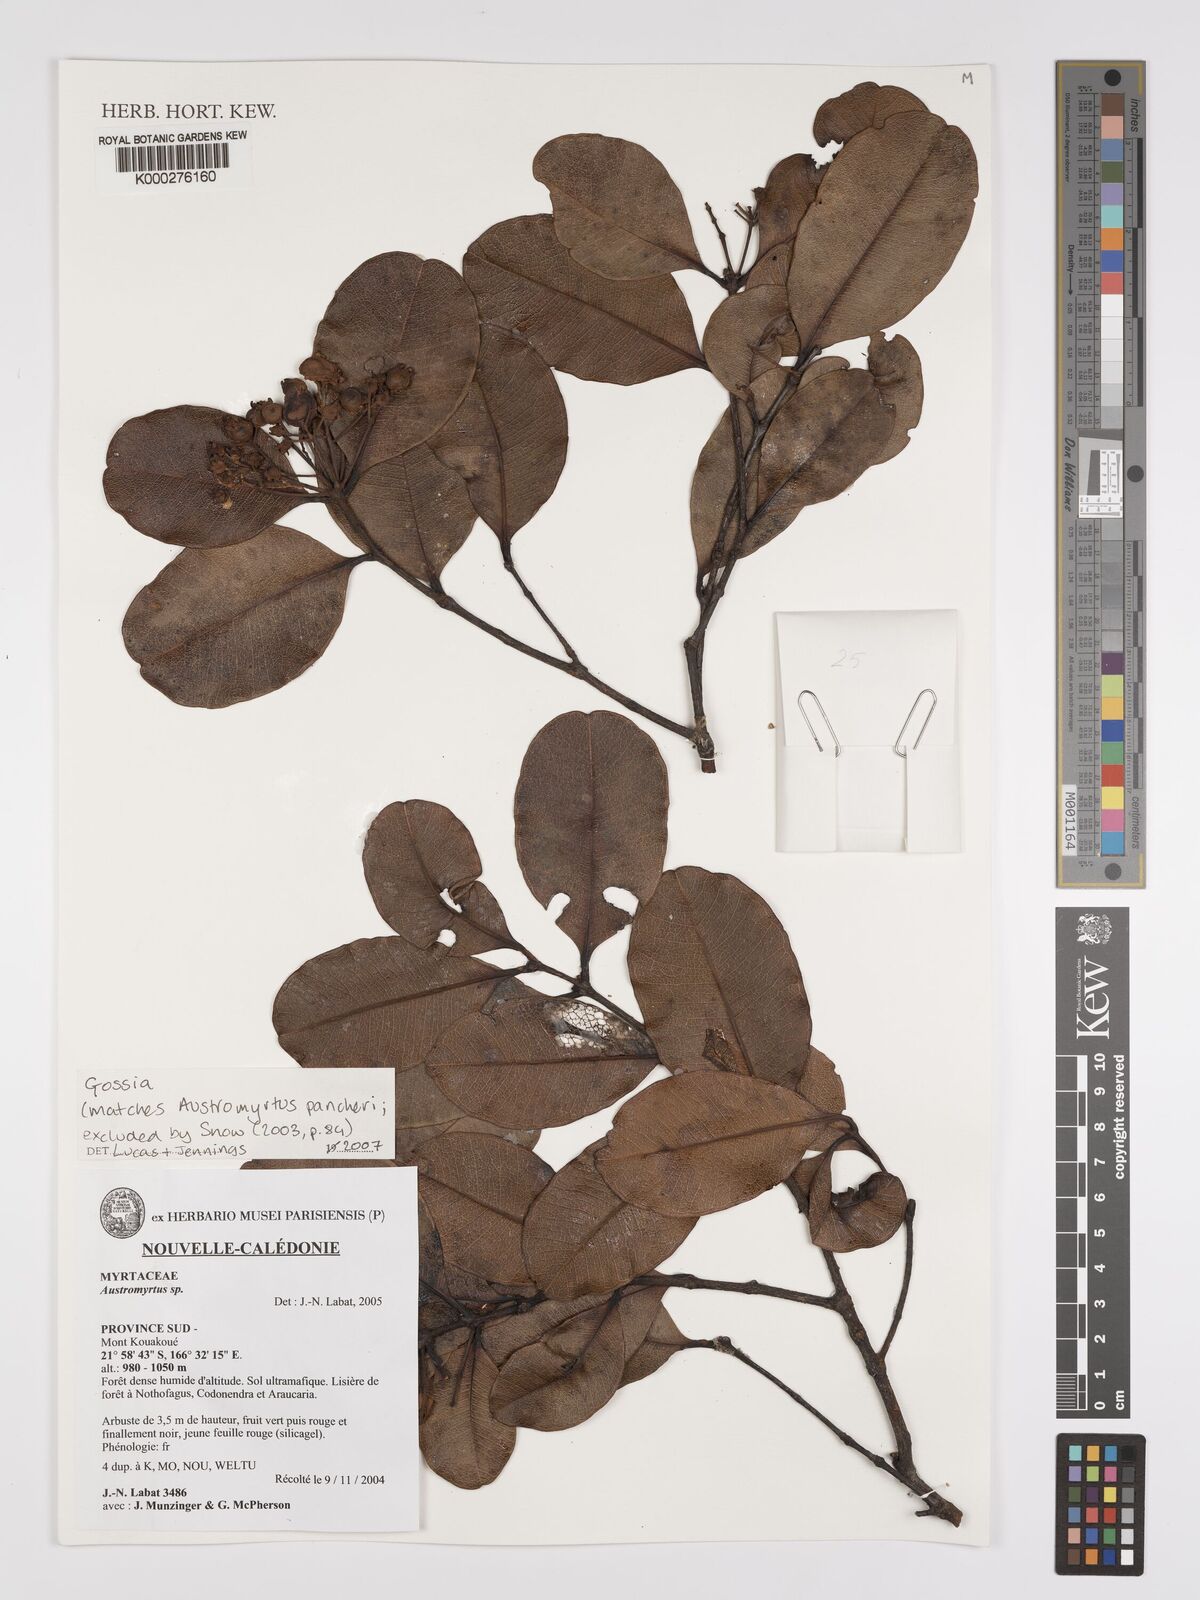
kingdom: Plantae
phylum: Tracheophyta
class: Magnoliopsida
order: Myrtales
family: Myrtaceae
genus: Gossia
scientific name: Gossia
